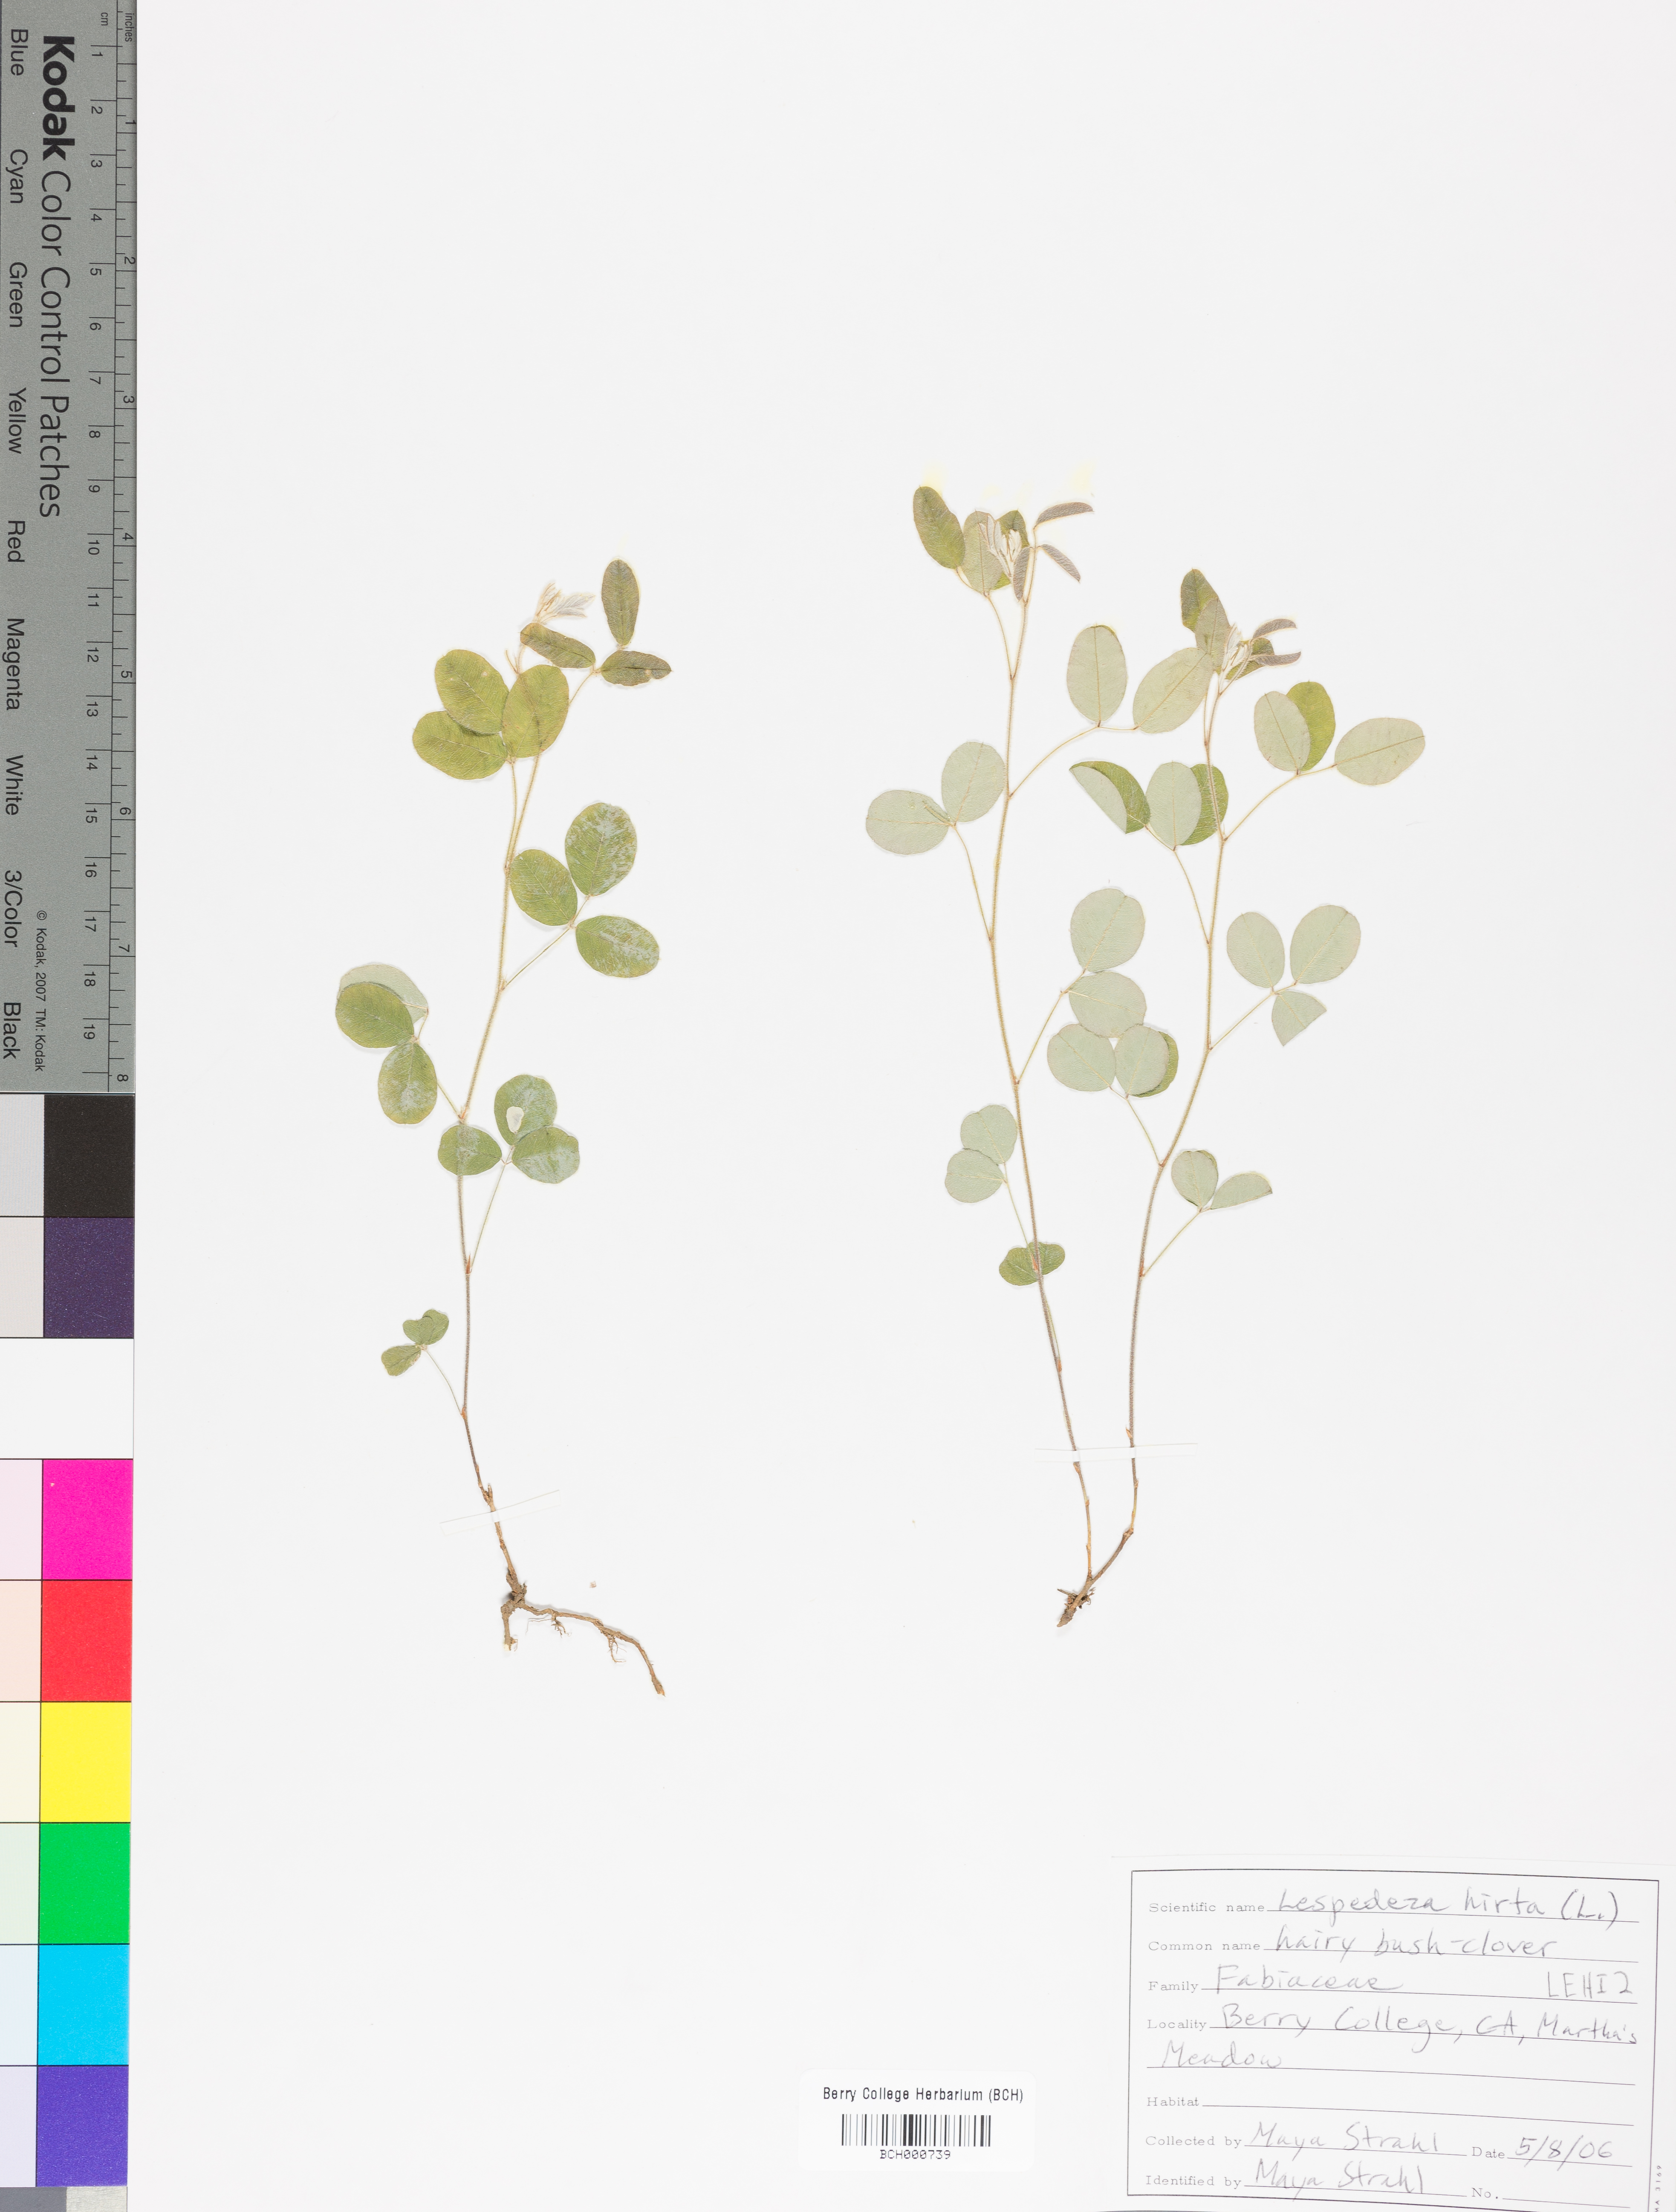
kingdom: Plantae
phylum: Tracheophyta
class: Magnoliopsida
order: Fabales
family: Fabaceae
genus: Lespedeza
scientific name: Lespedeza hirta
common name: Hairy lespedeza
